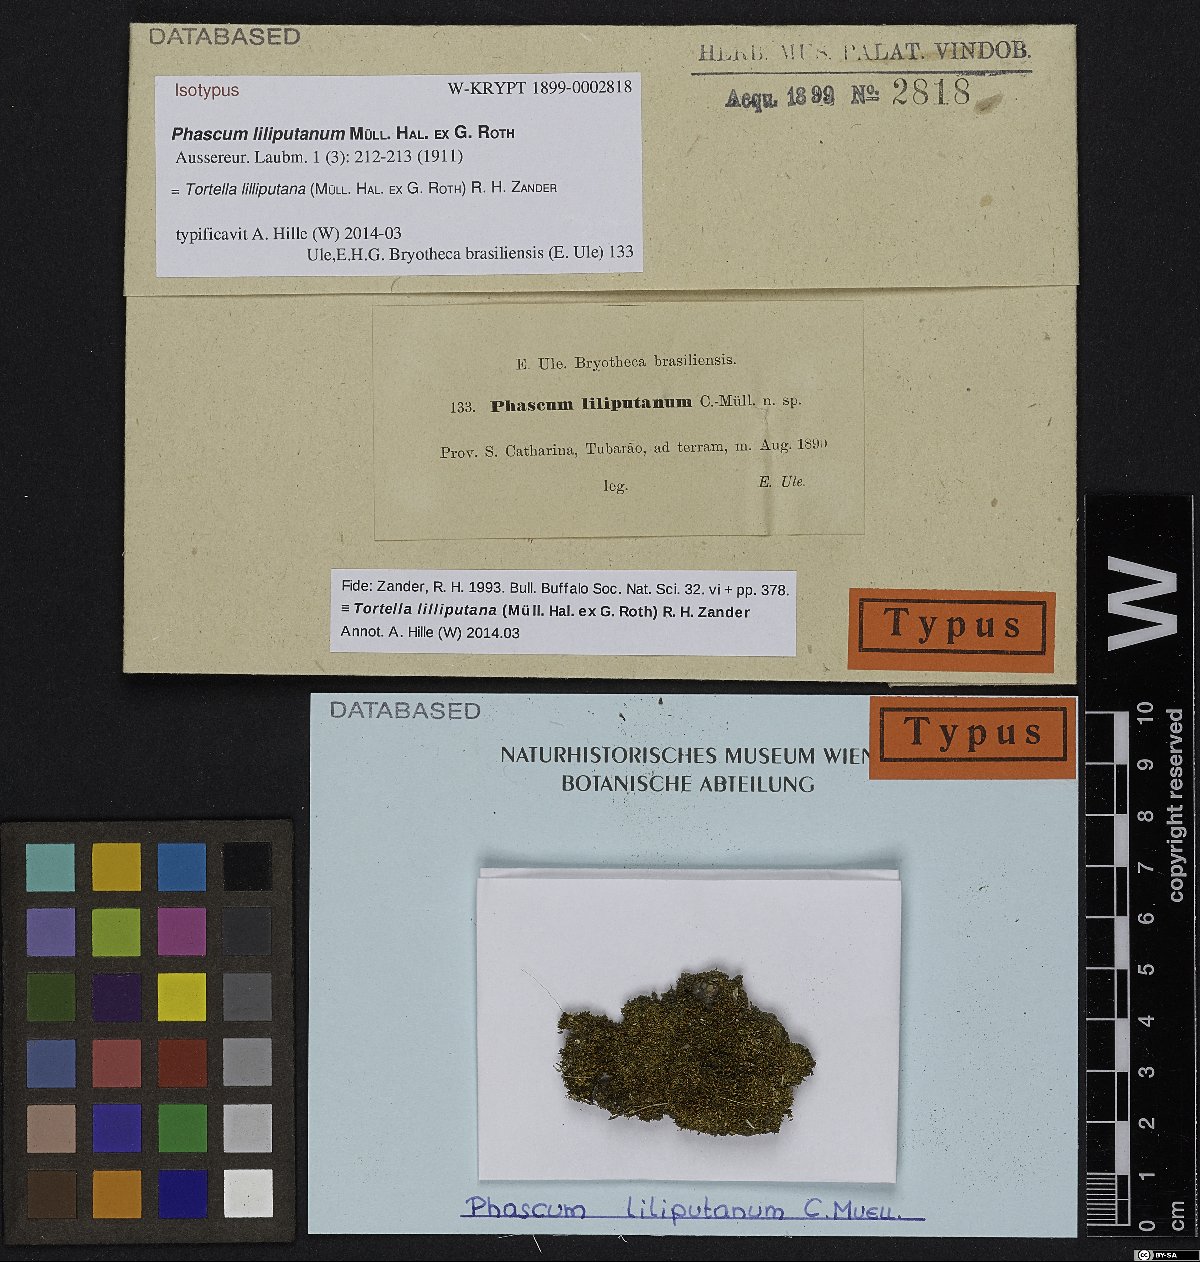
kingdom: Plantae
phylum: Bryophyta
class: Bryopsida
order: Pottiales
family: Pottiaceae
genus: Anaschisma
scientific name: Anaschisma lilliputanum
